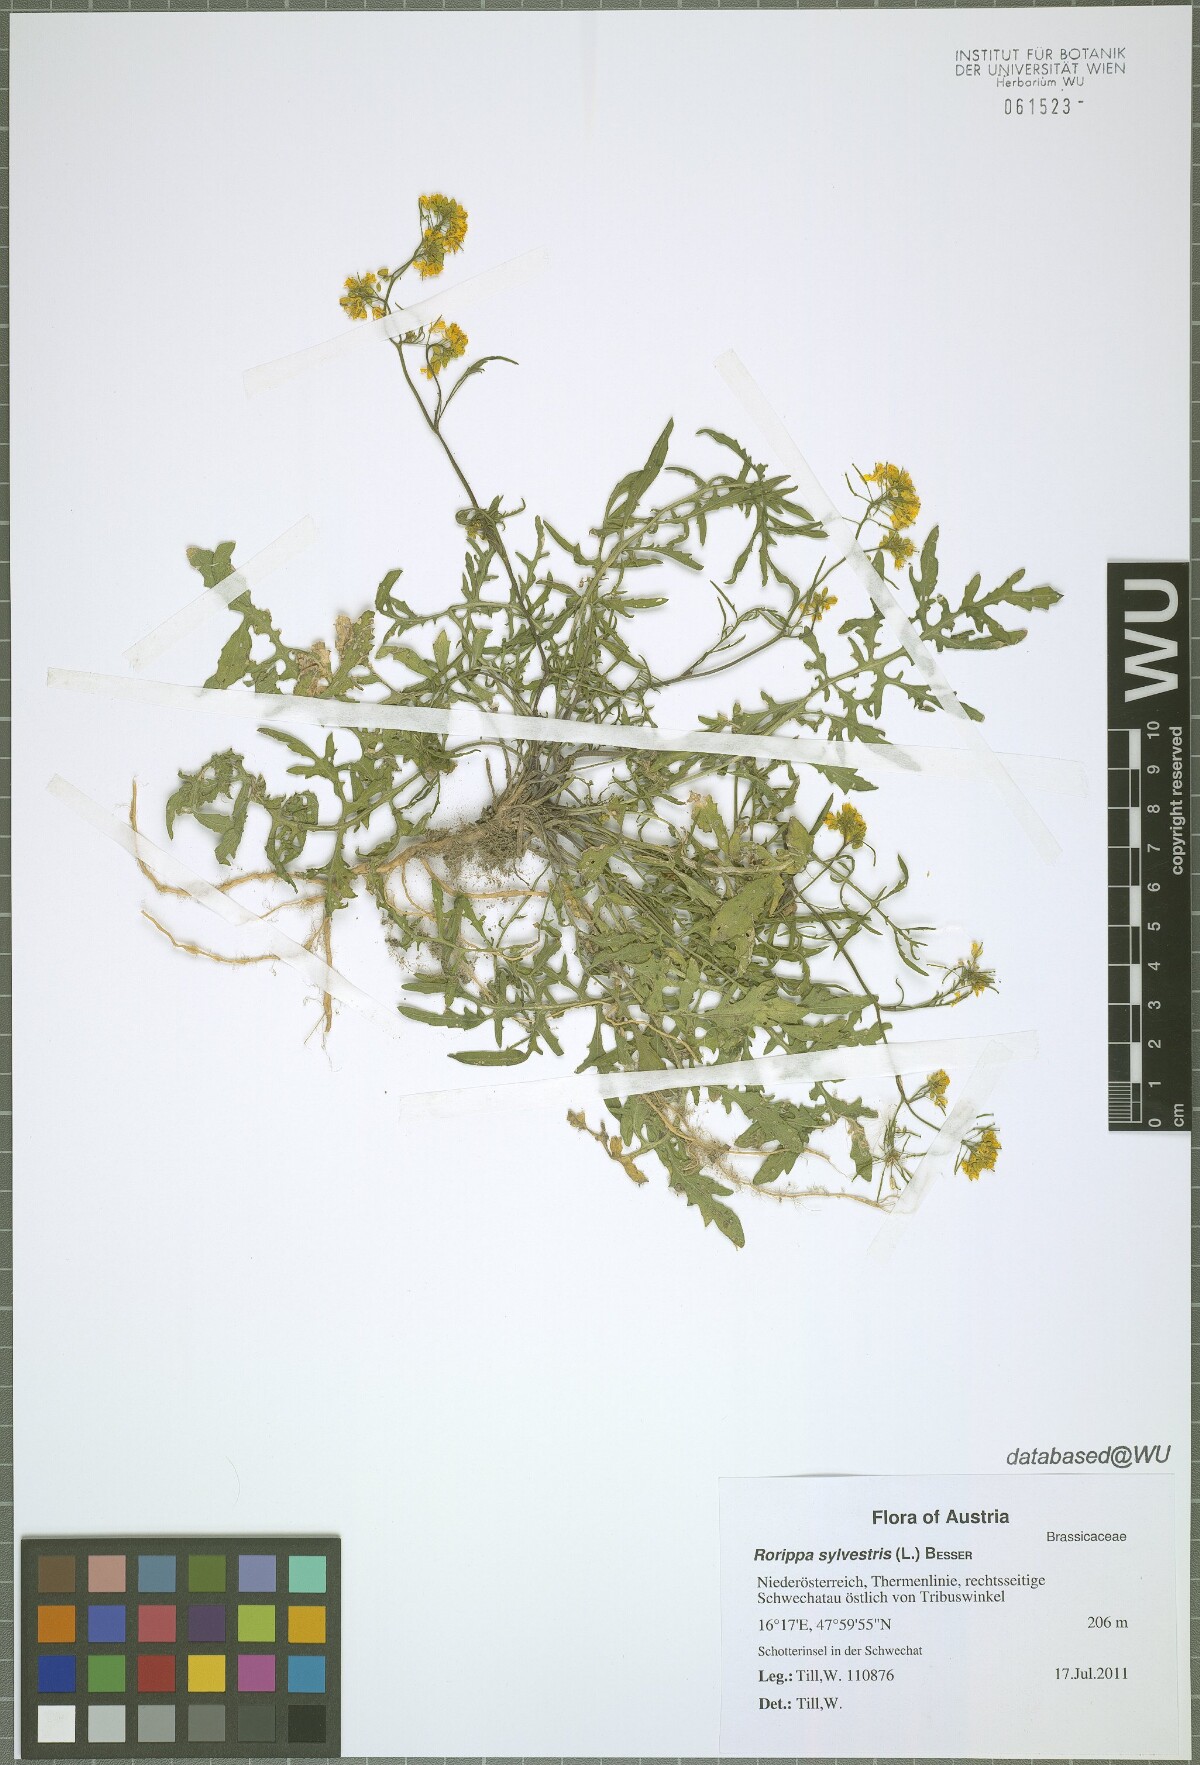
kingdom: Plantae
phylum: Tracheophyta
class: Magnoliopsida
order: Brassicales
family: Brassicaceae
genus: Rorippa
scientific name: Rorippa sylvestris
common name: Creeping yellowcress
